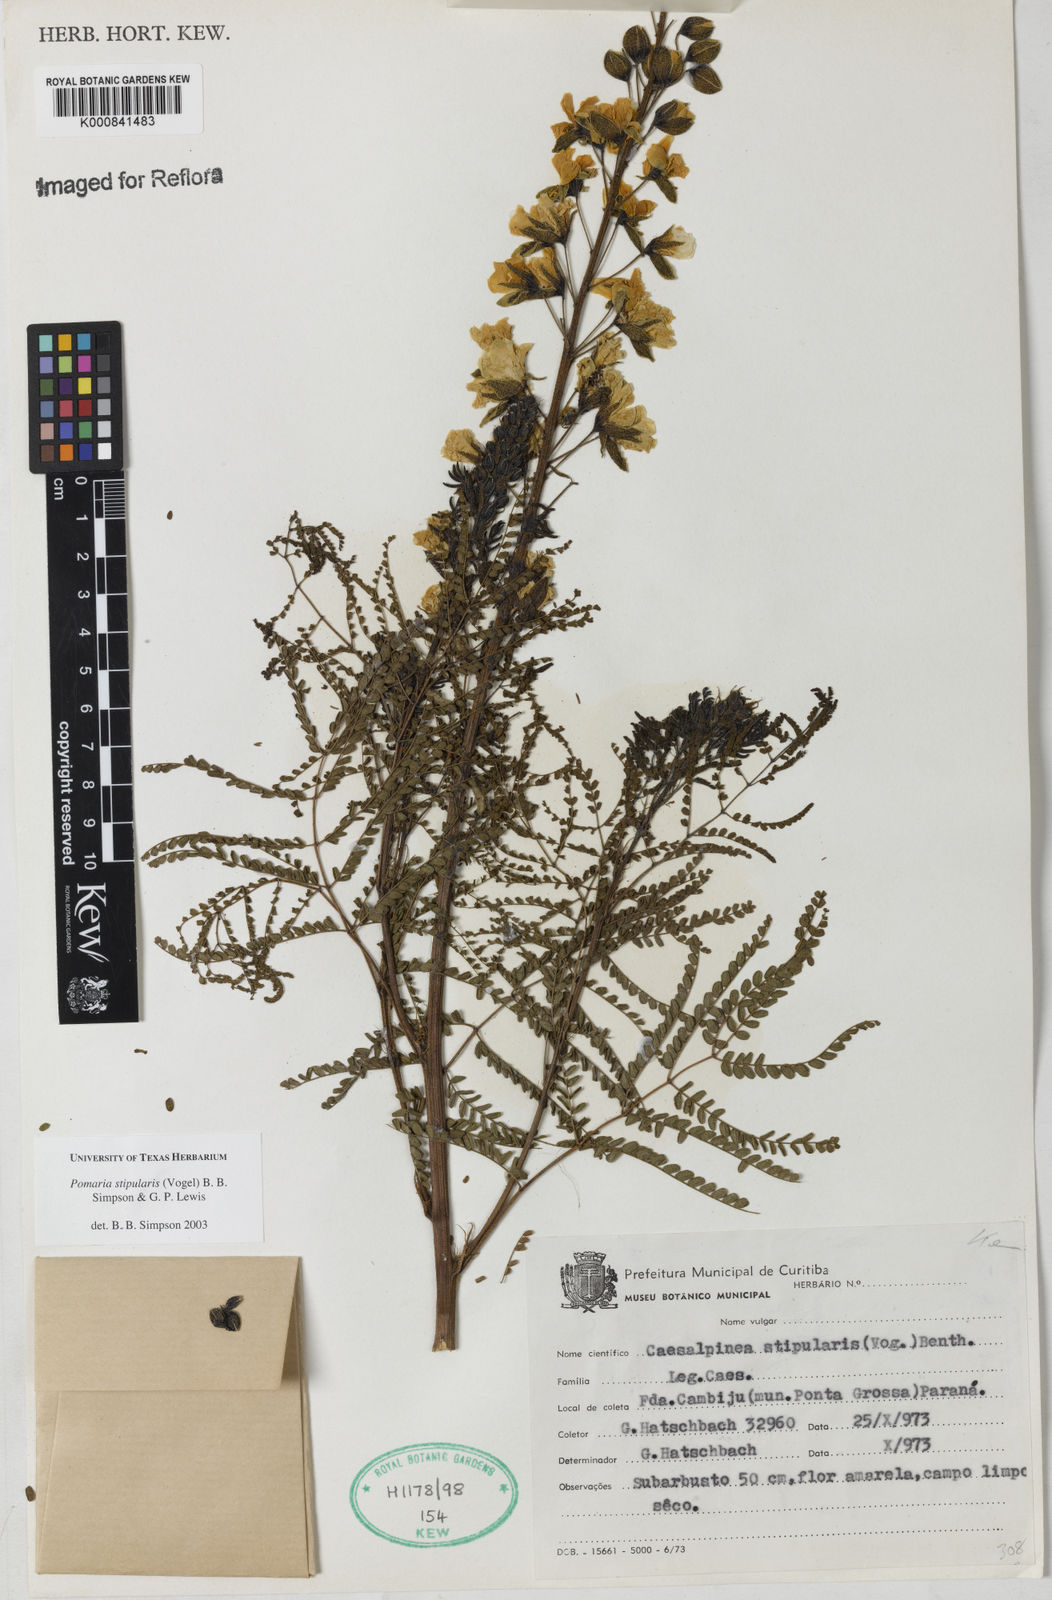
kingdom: Plantae
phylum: Tracheophyta
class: Magnoliopsida
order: Fabales
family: Fabaceae
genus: Pomaria
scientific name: Pomaria stipularis
